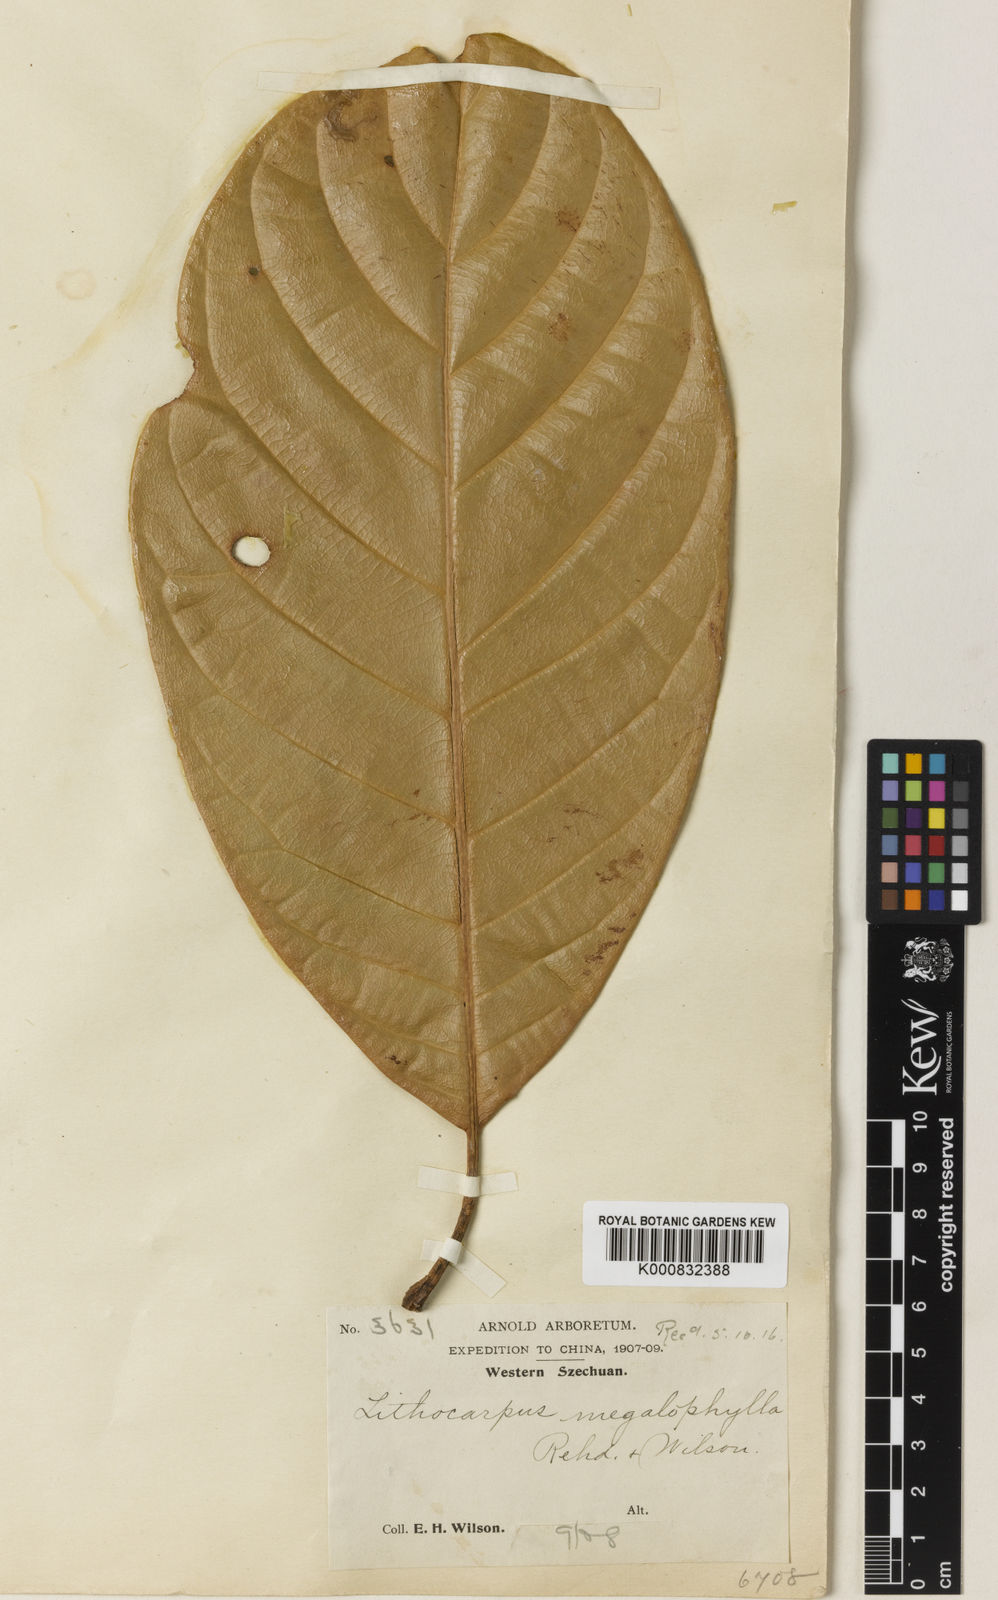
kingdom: Plantae
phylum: Tracheophyta
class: Magnoliopsida
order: Fagales
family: Fagaceae
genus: Lithocarpus
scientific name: Lithocarpus megalophyllus
